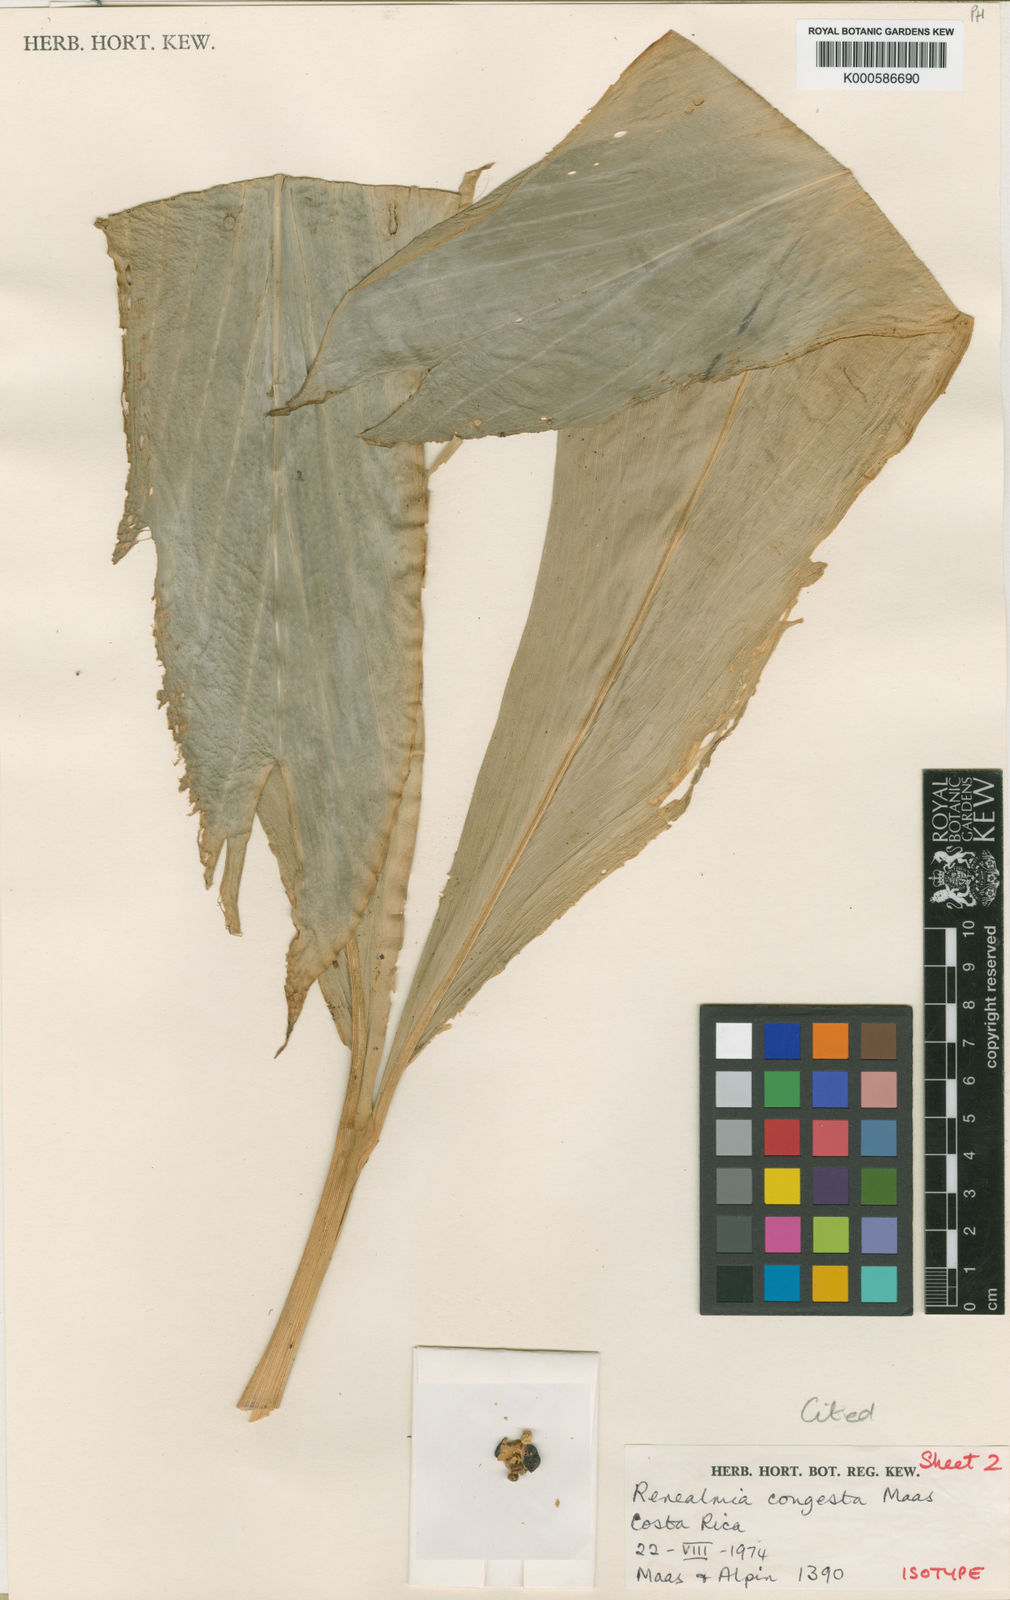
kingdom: Plantae
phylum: Tracheophyta
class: Liliopsida
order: Zingiberales
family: Zingiberaceae
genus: Renealmia
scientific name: Renealmia congesta
